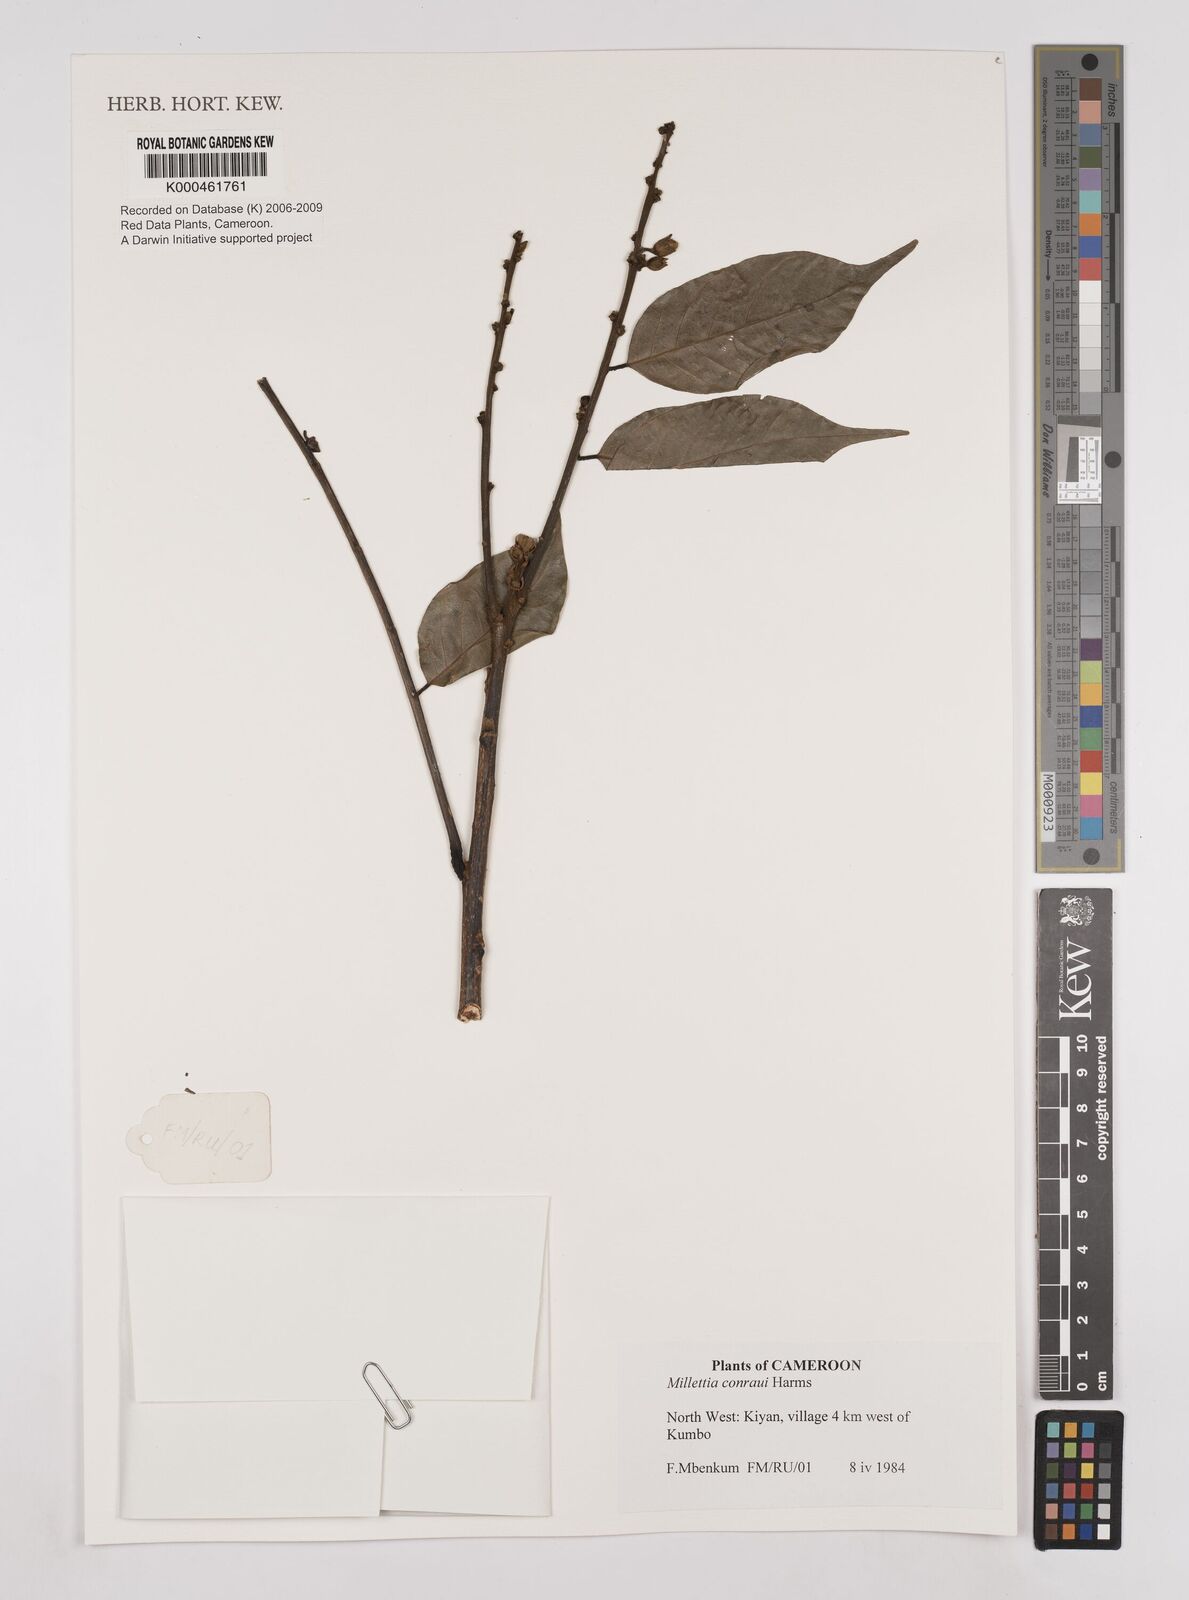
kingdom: Plantae
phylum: Tracheophyta
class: Magnoliopsida
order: Fabales
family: Fabaceae
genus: Millettia
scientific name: Millettia conraui
